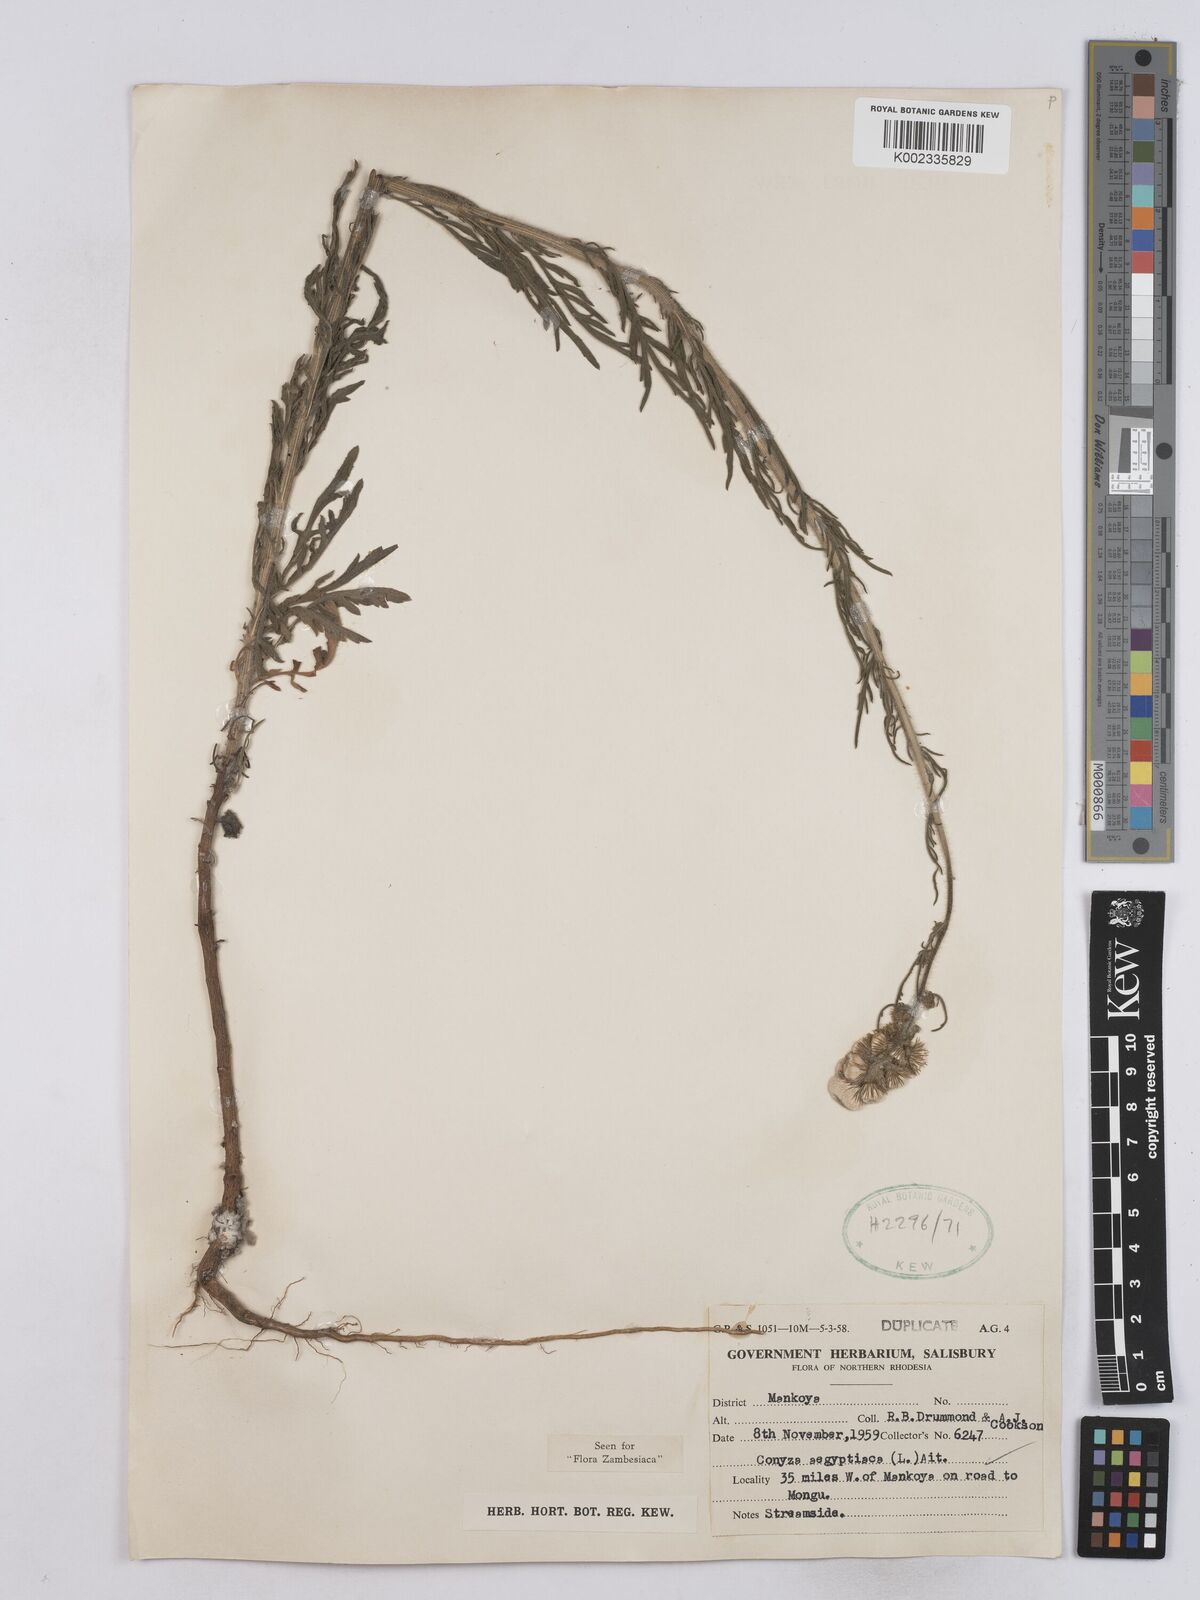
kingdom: Plantae
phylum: Tracheophyta
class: Magnoliopsida
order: Asterales
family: Asteraceae
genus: Nidorella
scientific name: Nidorella aegyptiaca
